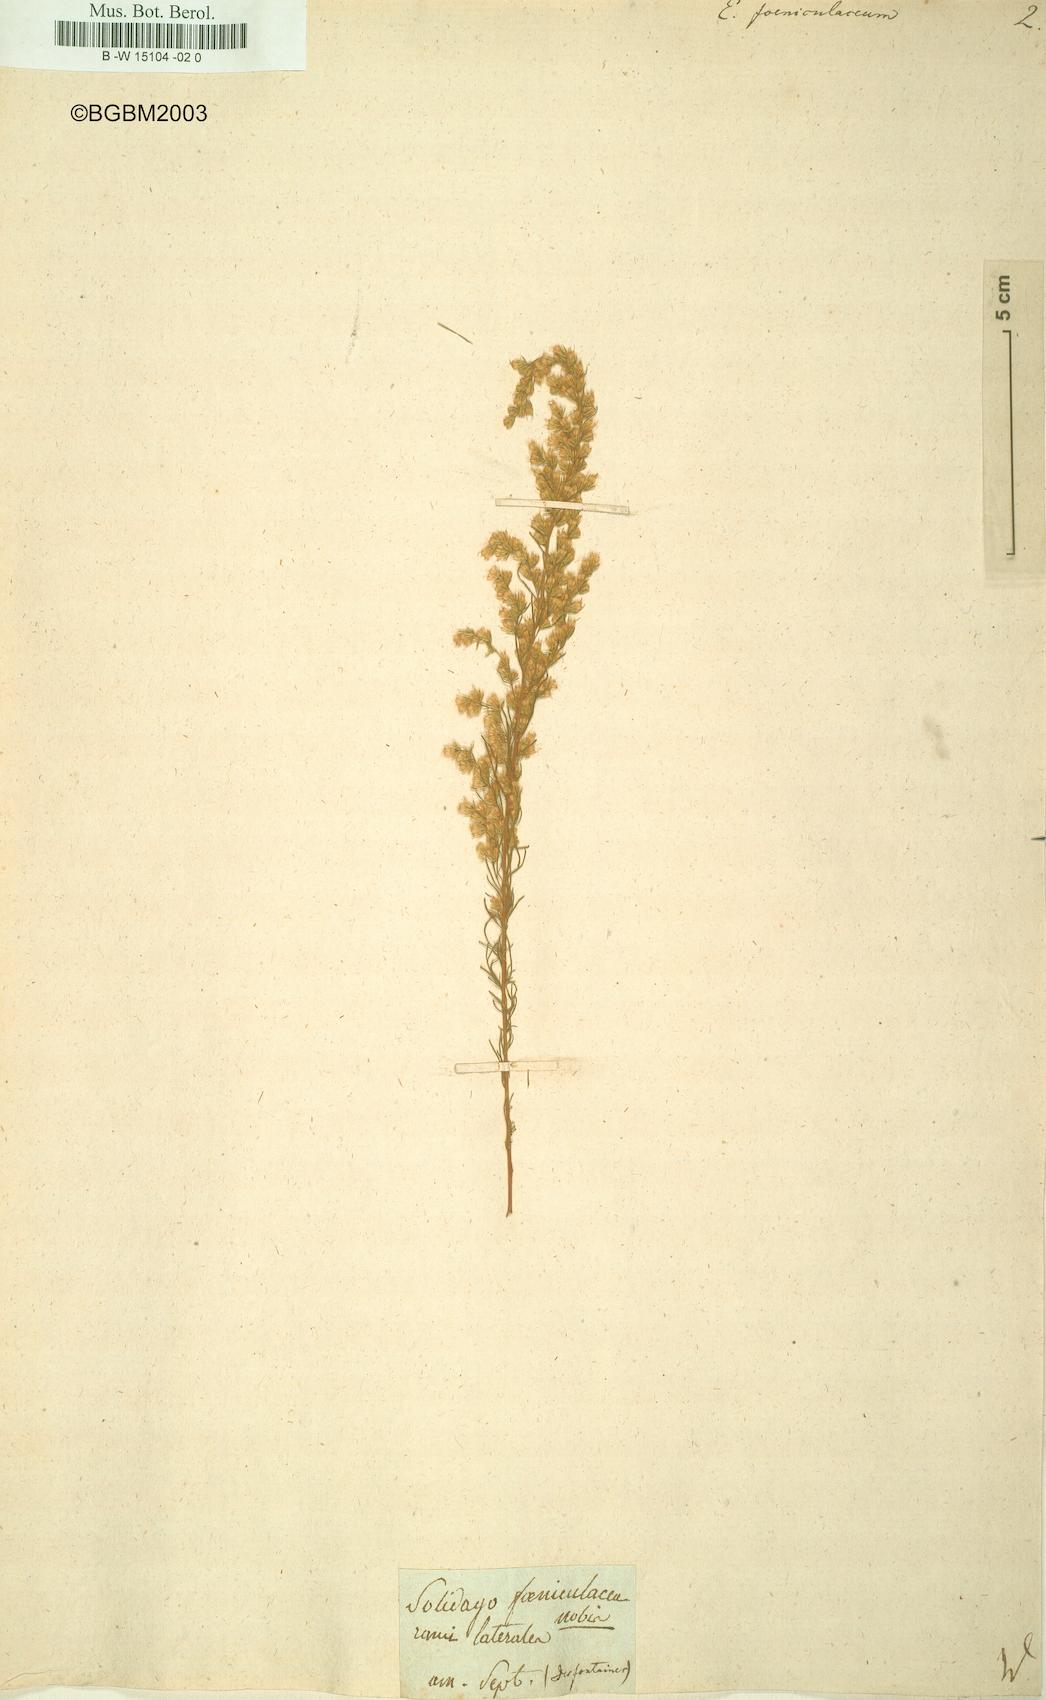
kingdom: Plantae
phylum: Tracheophyta
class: Magnoliopsida
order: Asterales
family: Asteraceae
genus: Eupatorium
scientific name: Eupatorium capillifolium
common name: Dog-fennel
